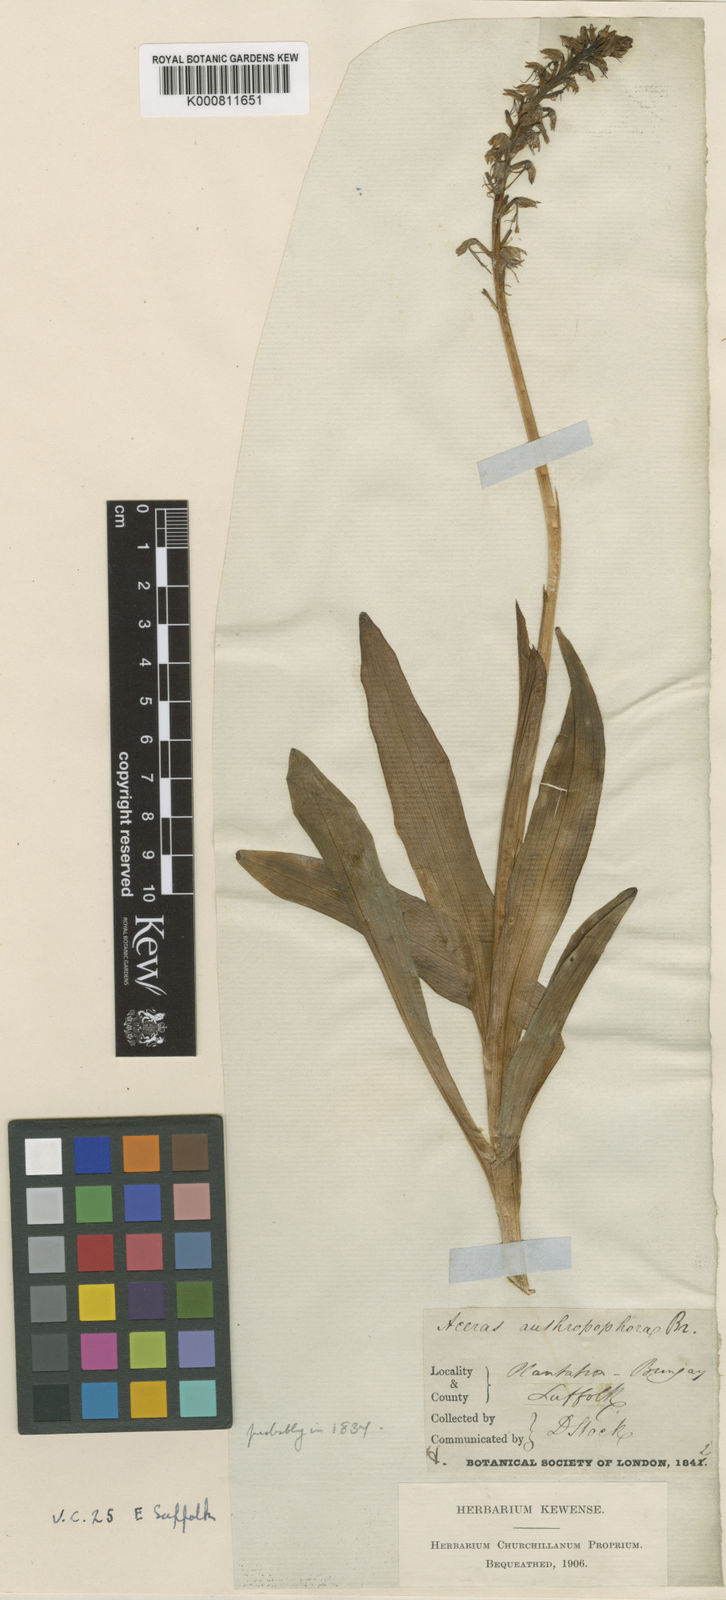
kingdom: Plantae
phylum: Tracheophyta
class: Liliopsida
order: Asparagales
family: Orchidaceae
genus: Orchis
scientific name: Orchis
